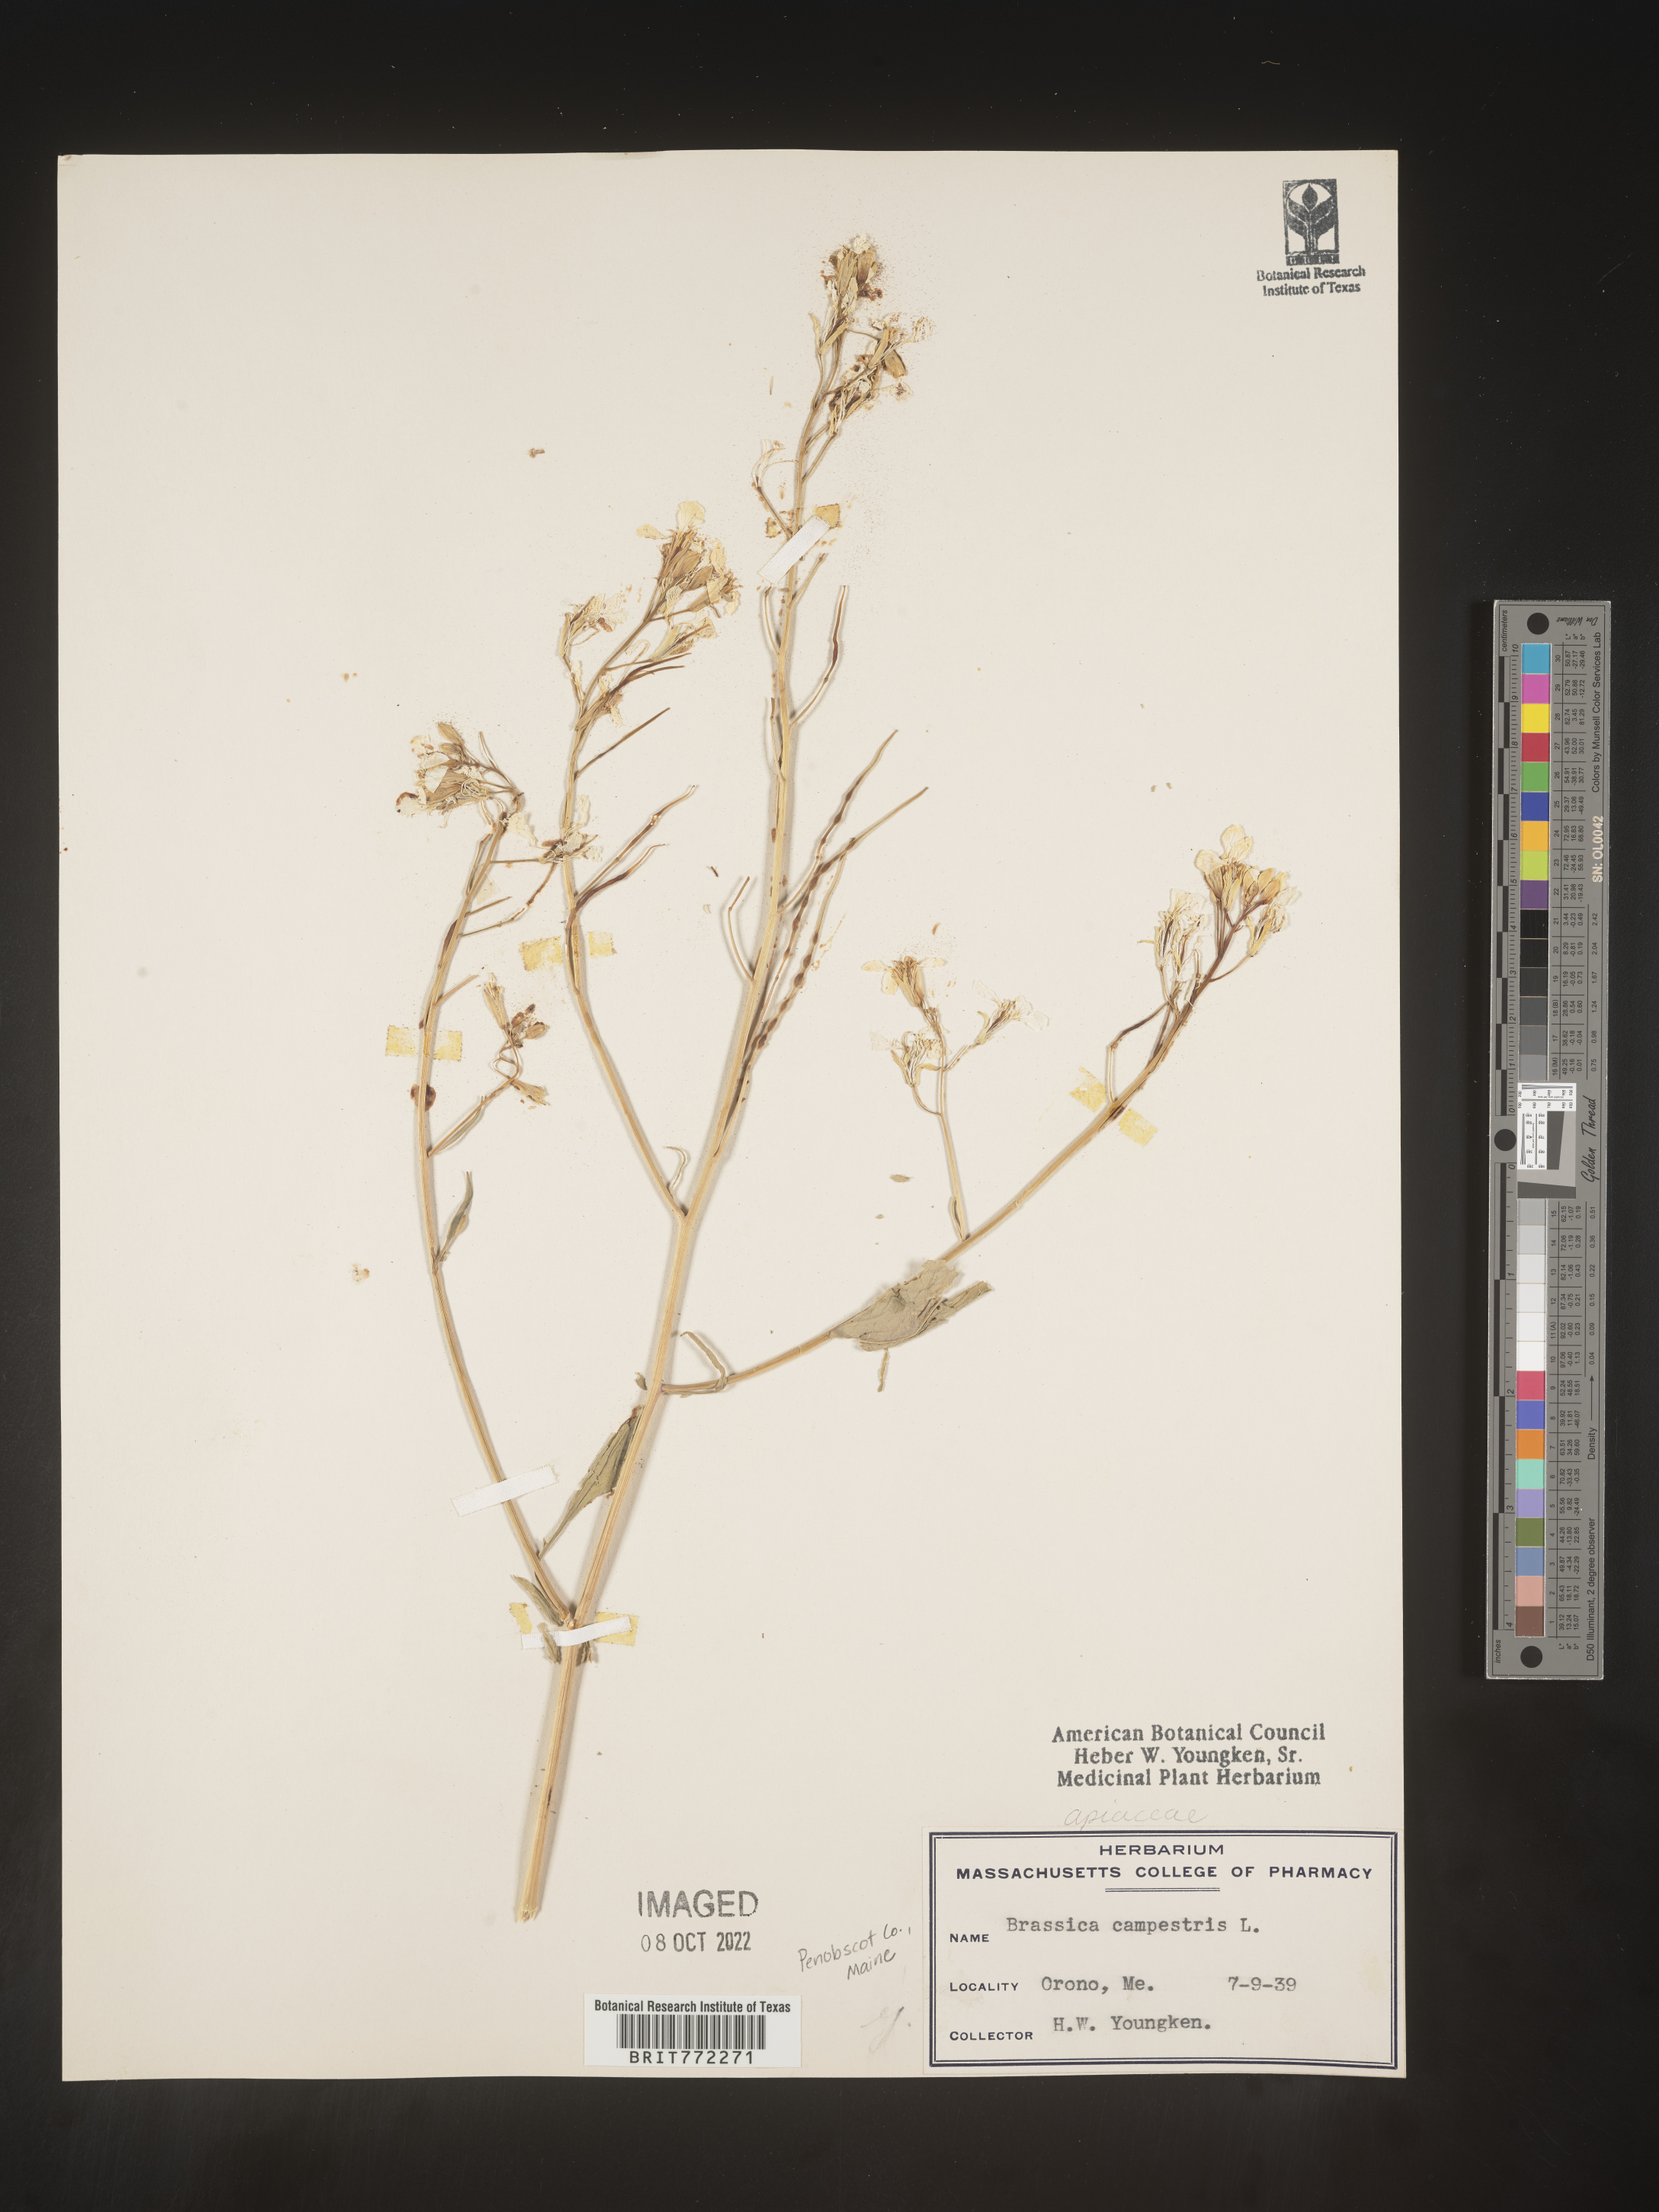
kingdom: Plantae
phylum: Tracheophyta
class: Magnoliopsida
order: Brassicales
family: Brassicaceae
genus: Brassica
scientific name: Brassica
